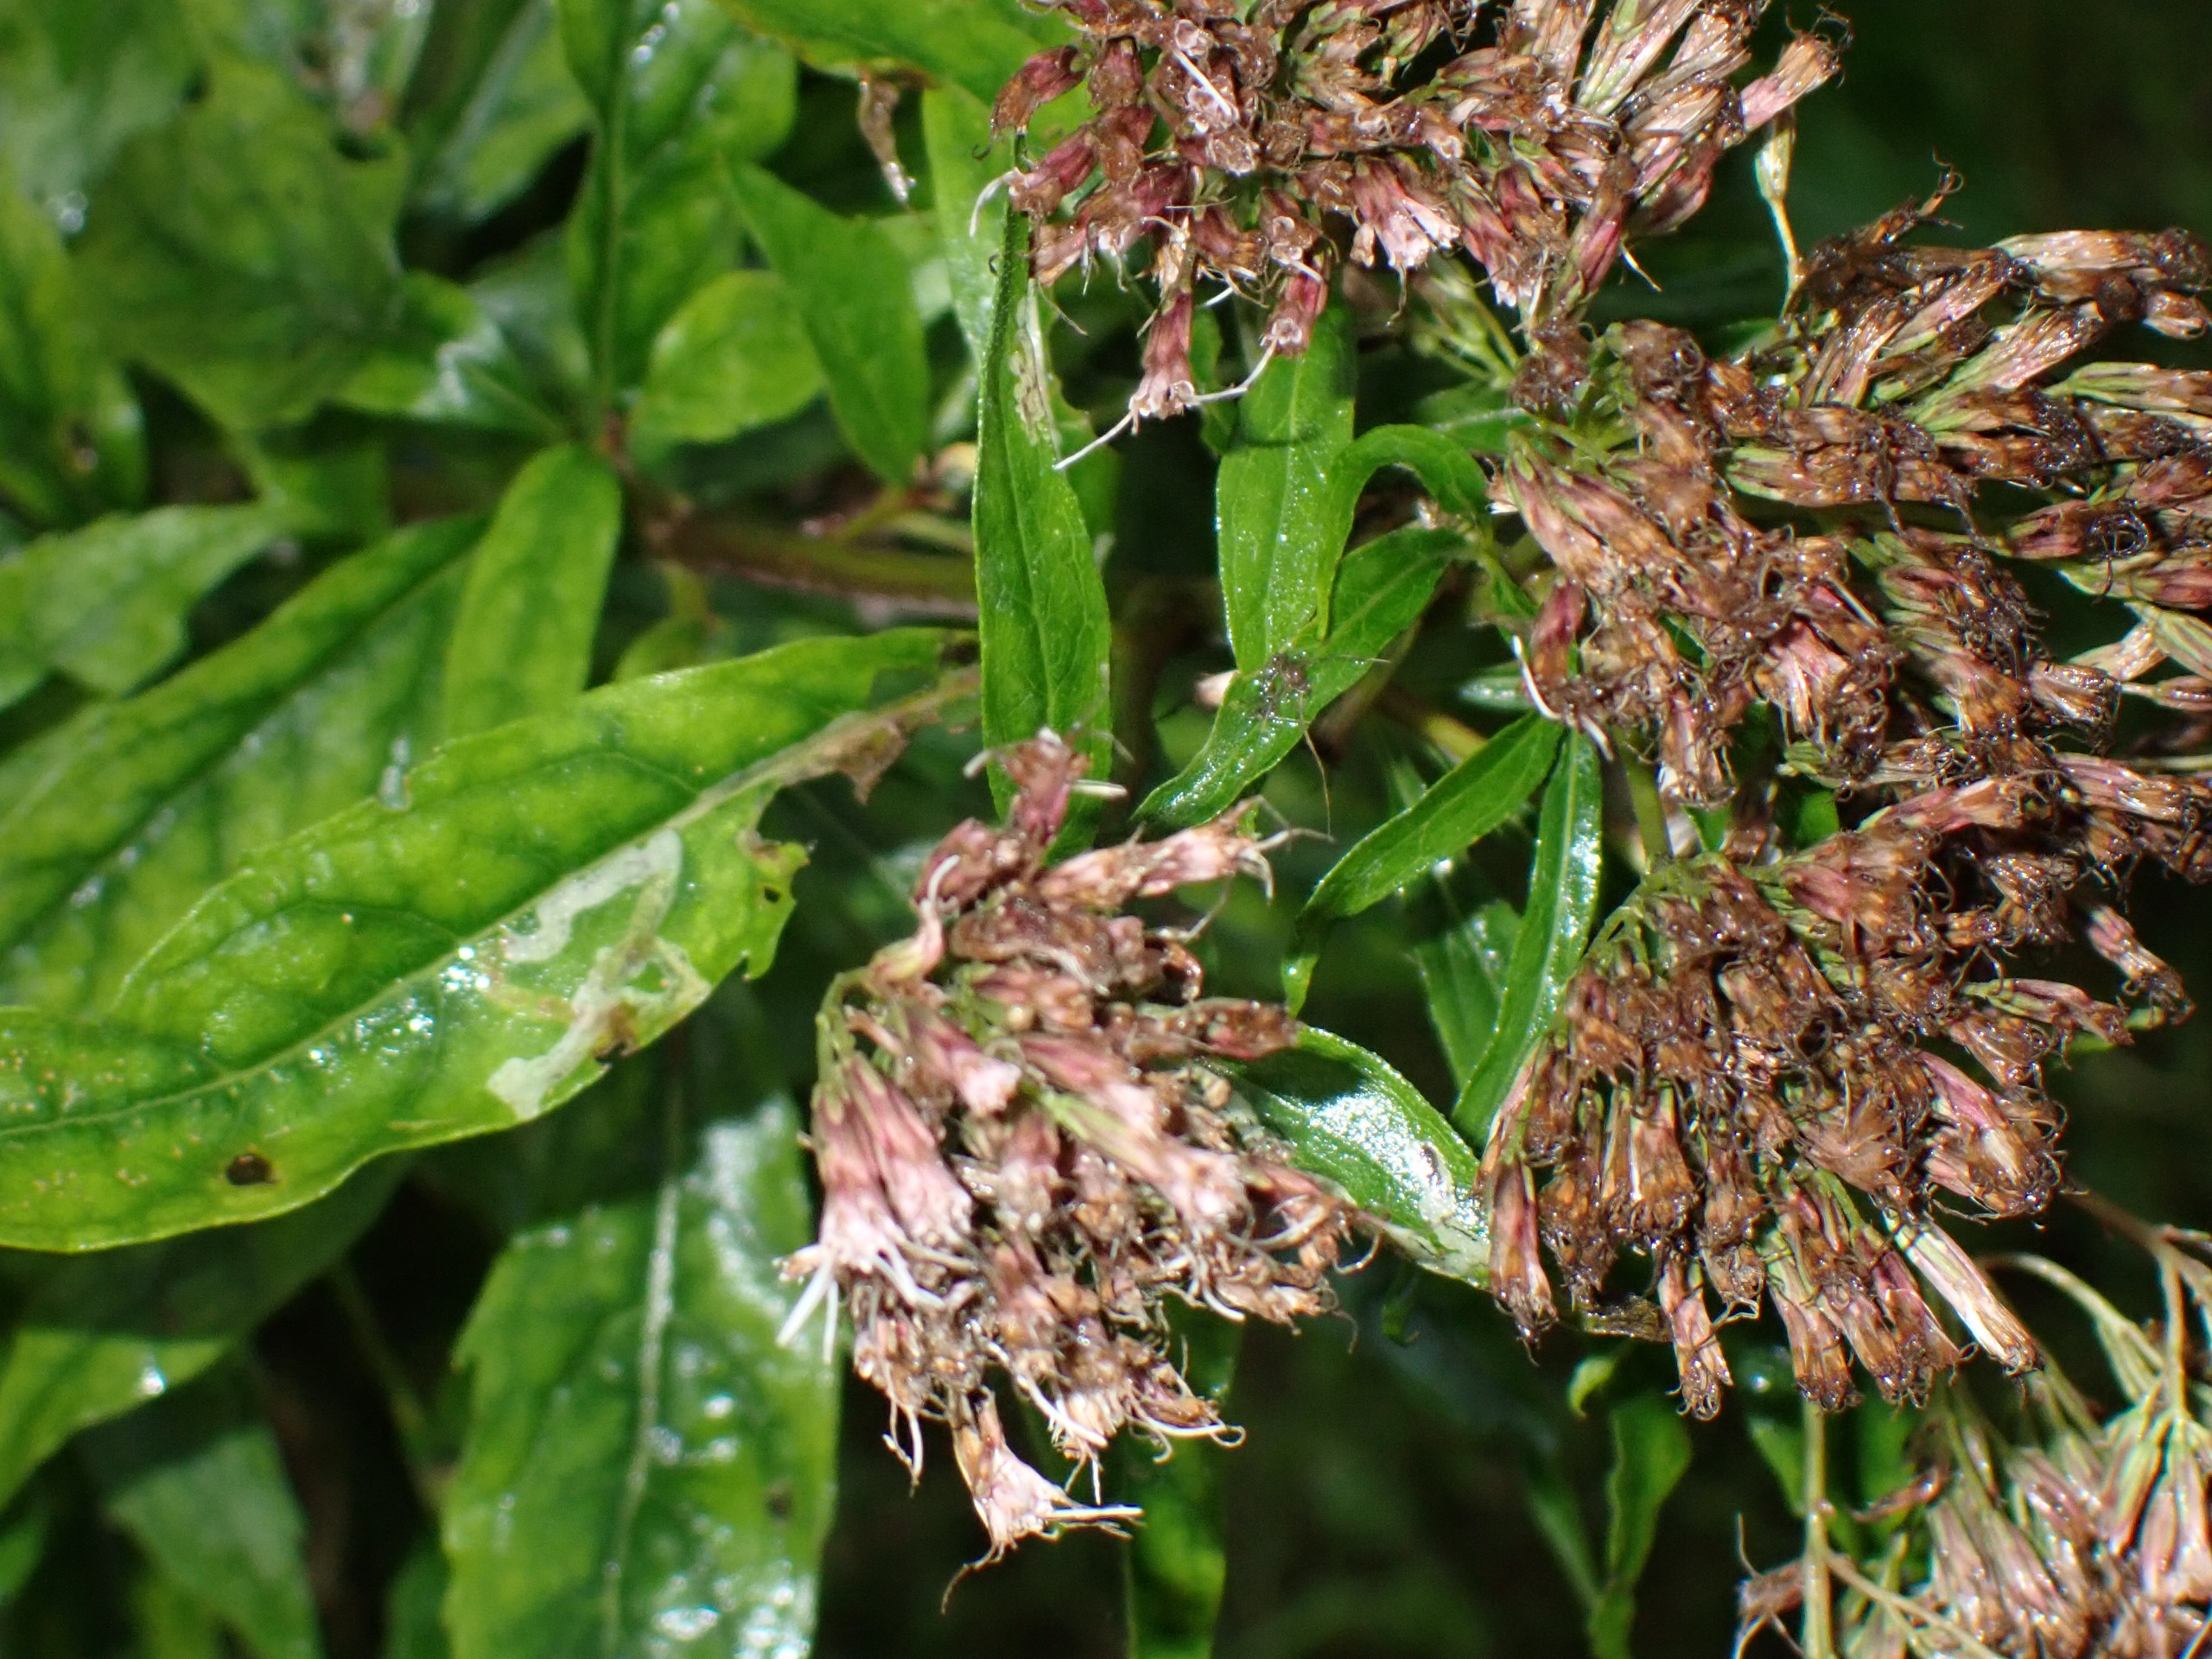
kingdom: Plantae
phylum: Tracheophyta
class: Magnoliopsida
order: Asterales
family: Asteraceae
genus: Eupatorium
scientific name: Eupatorium cannabinum
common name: Hjortetrøst
